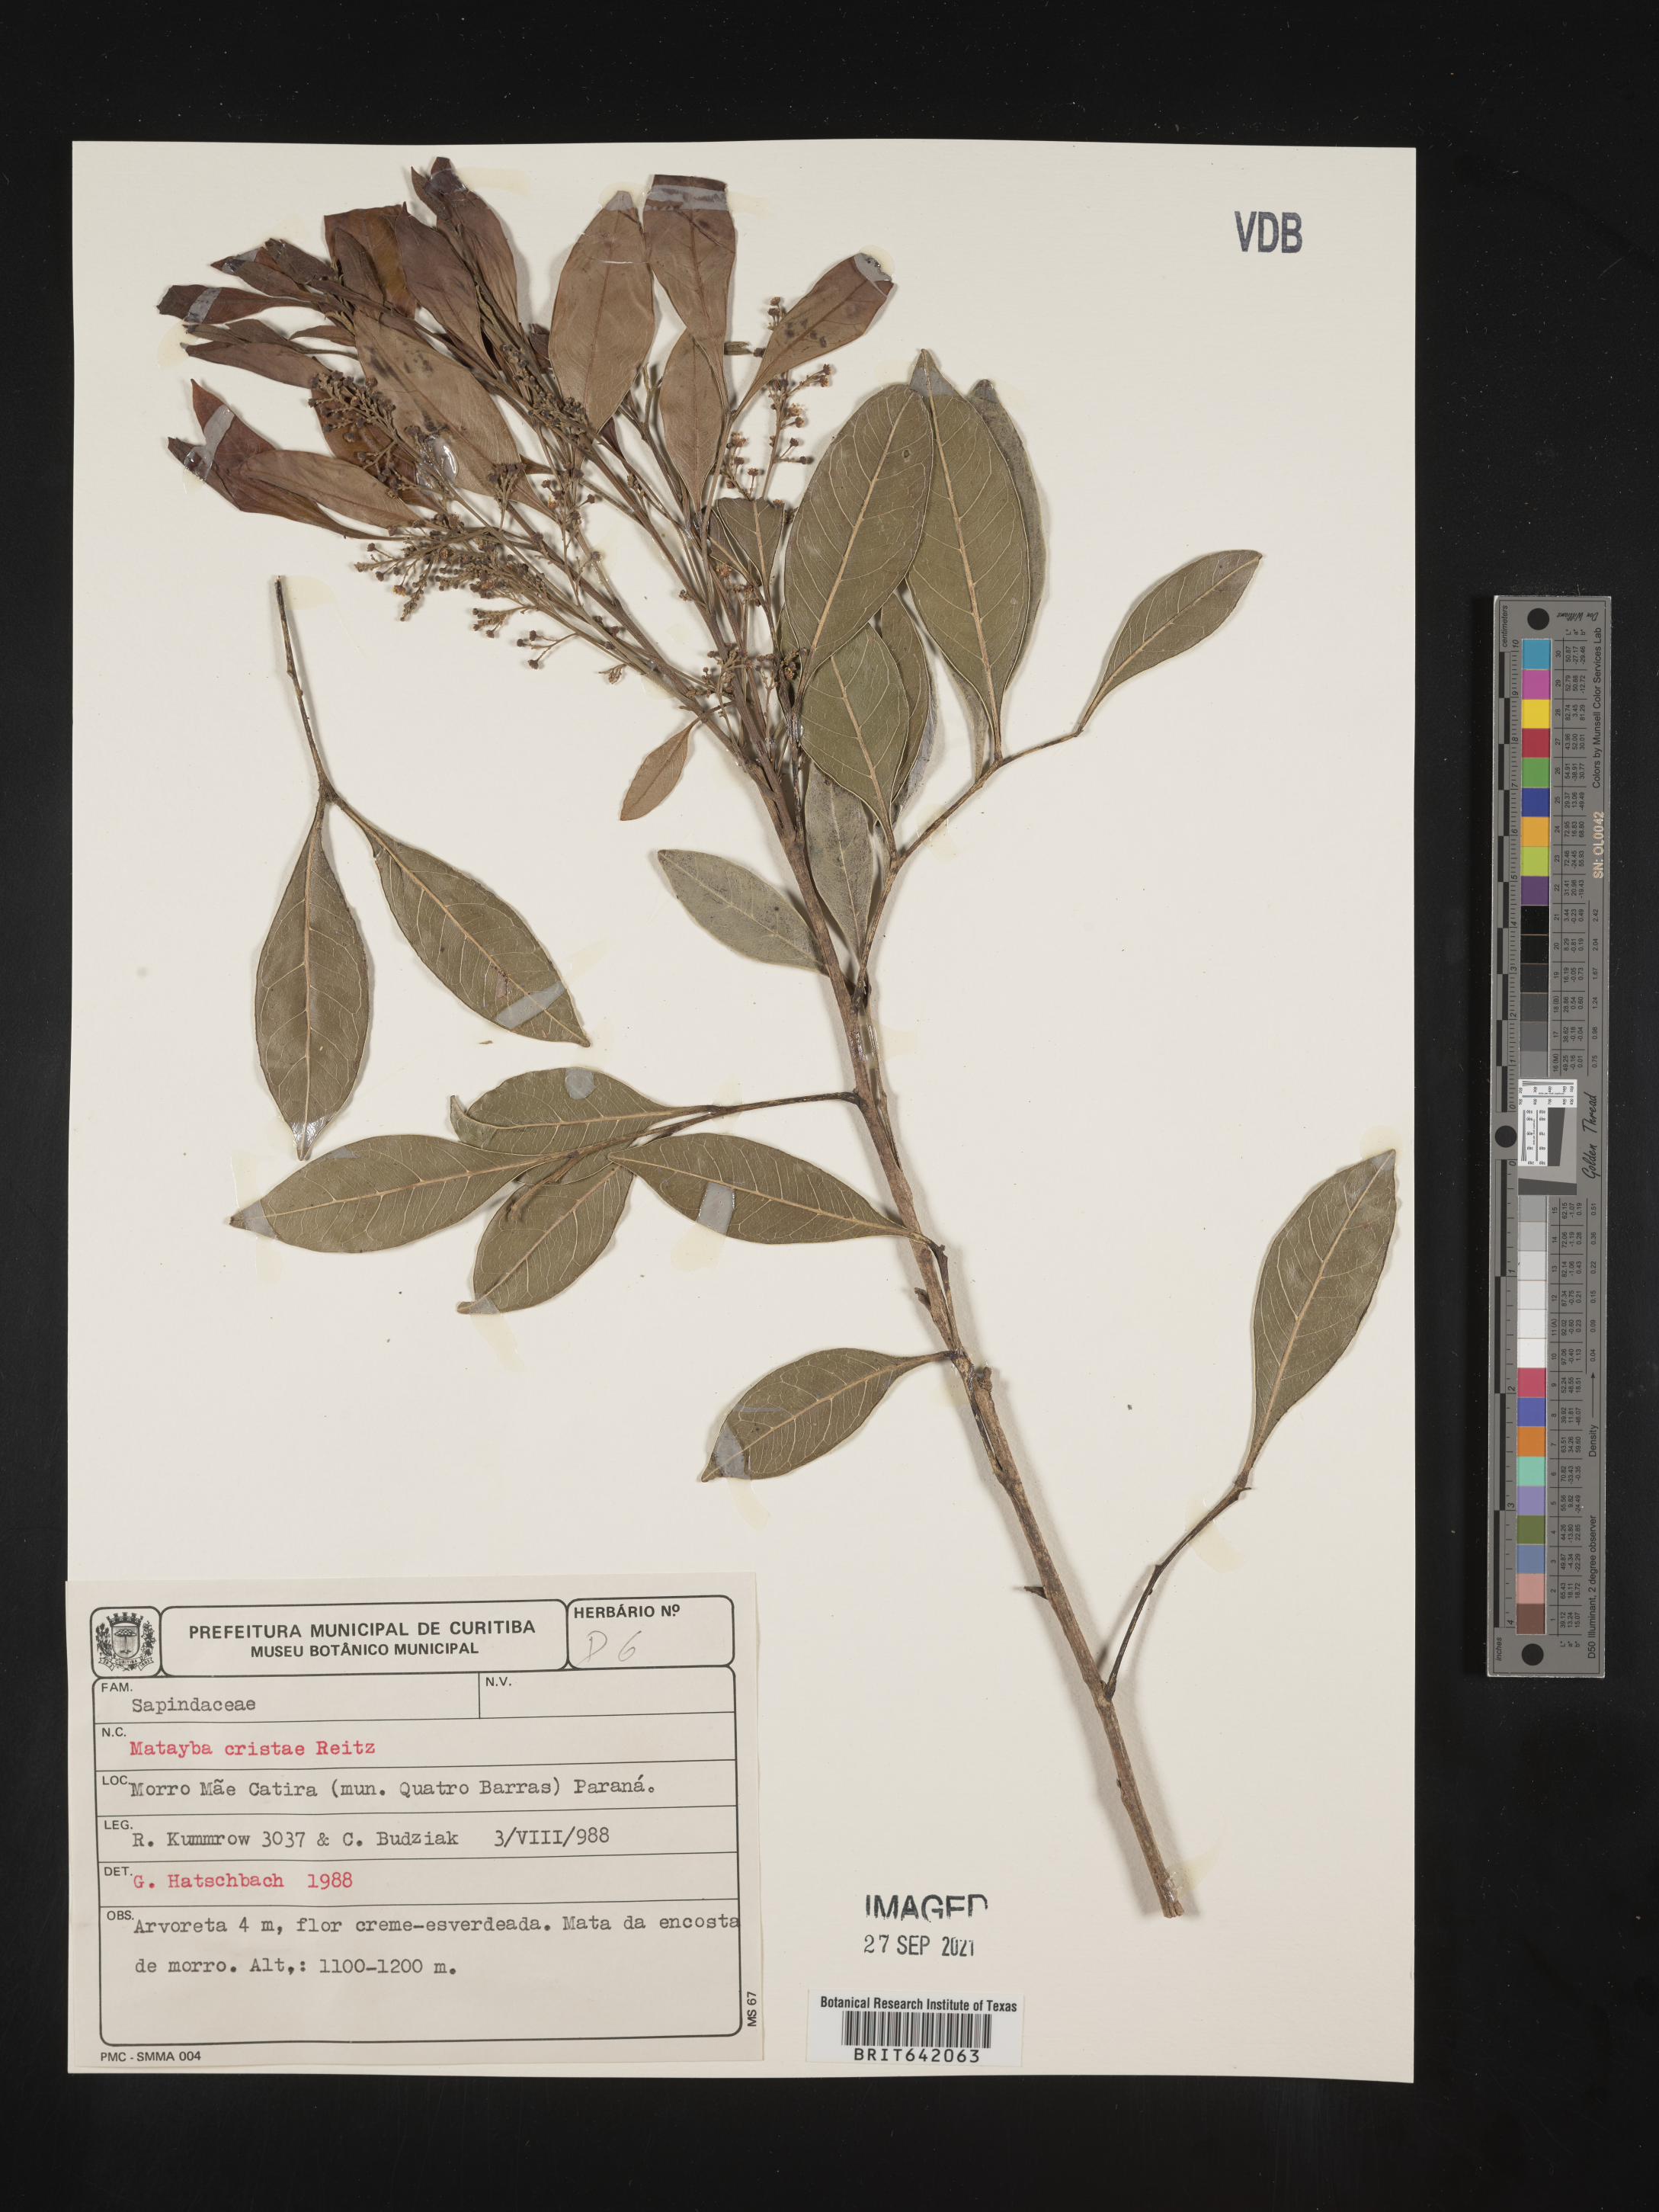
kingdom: Plantae
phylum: Tracheophyta
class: Magnoliopsida
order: Sapindales
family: Sapindaceae
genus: Matayba
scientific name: Matayba
